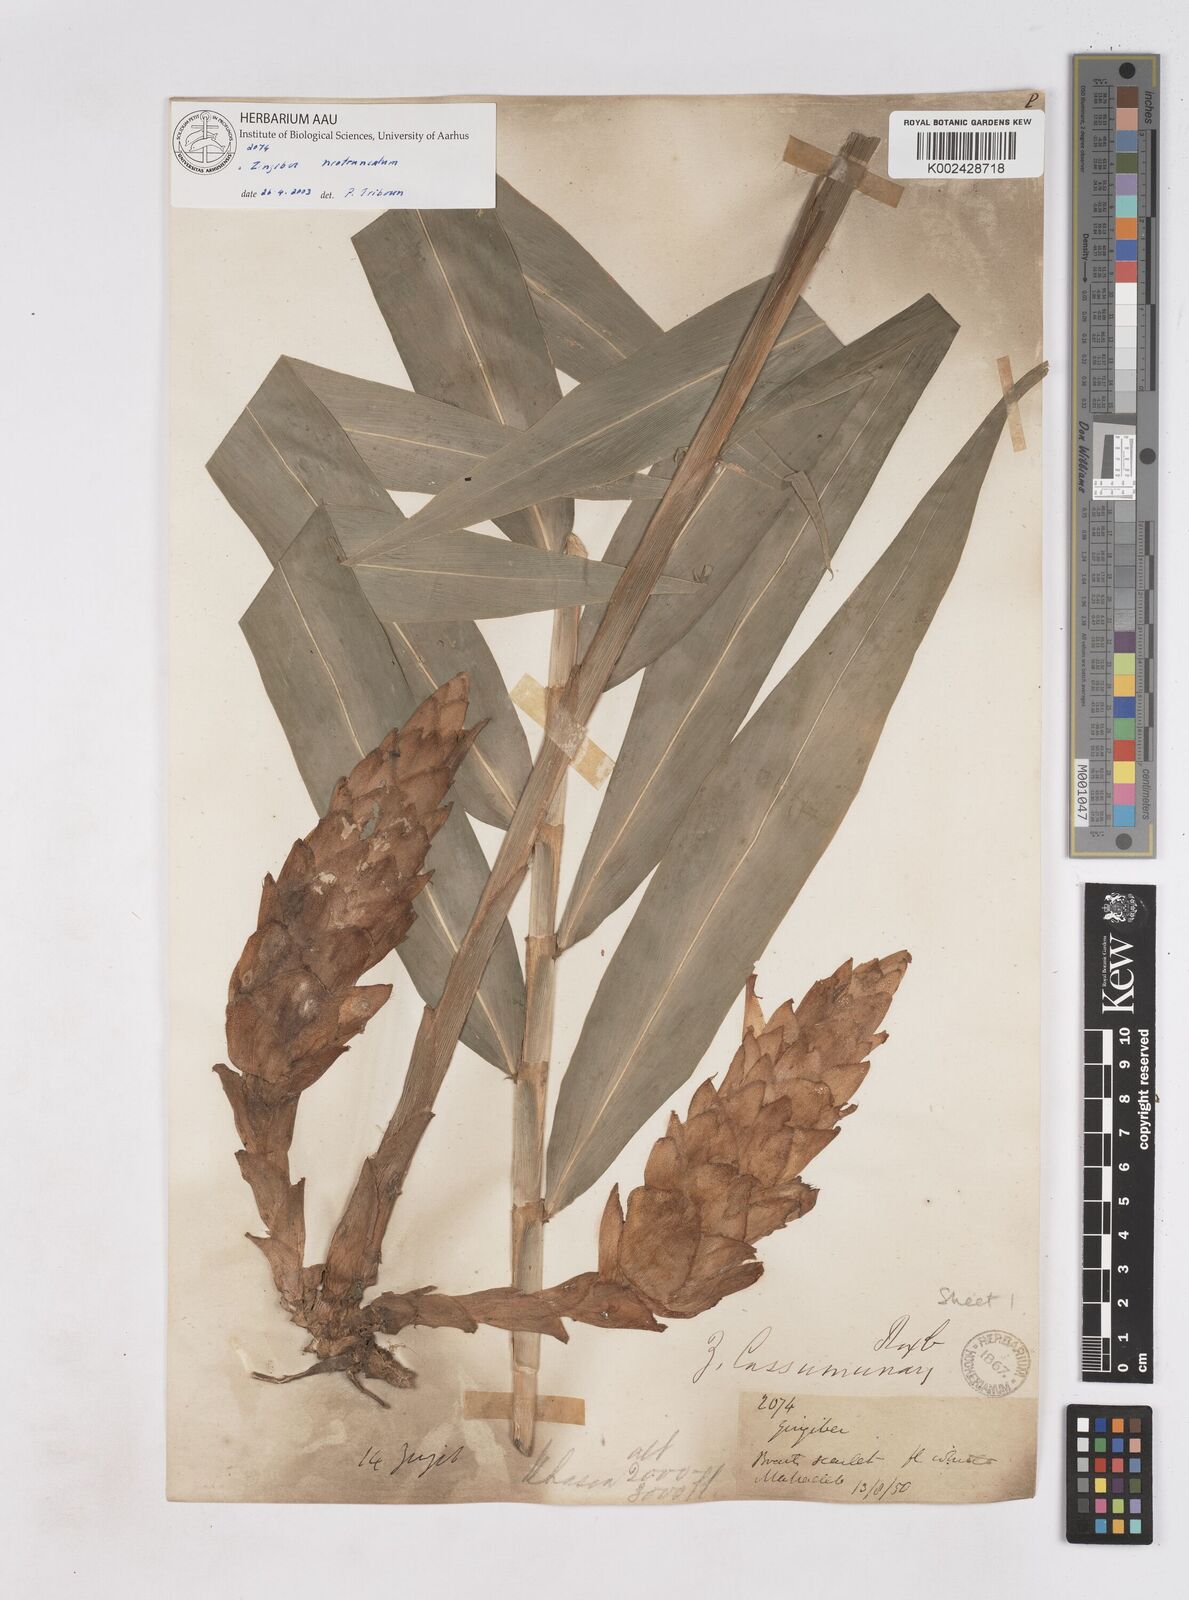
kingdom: Plantae
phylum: Tracheophyta
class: Liliopsida
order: Zingiberales
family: Zingiberaceae
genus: Zingiber
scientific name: Zingiber neotruncatum
